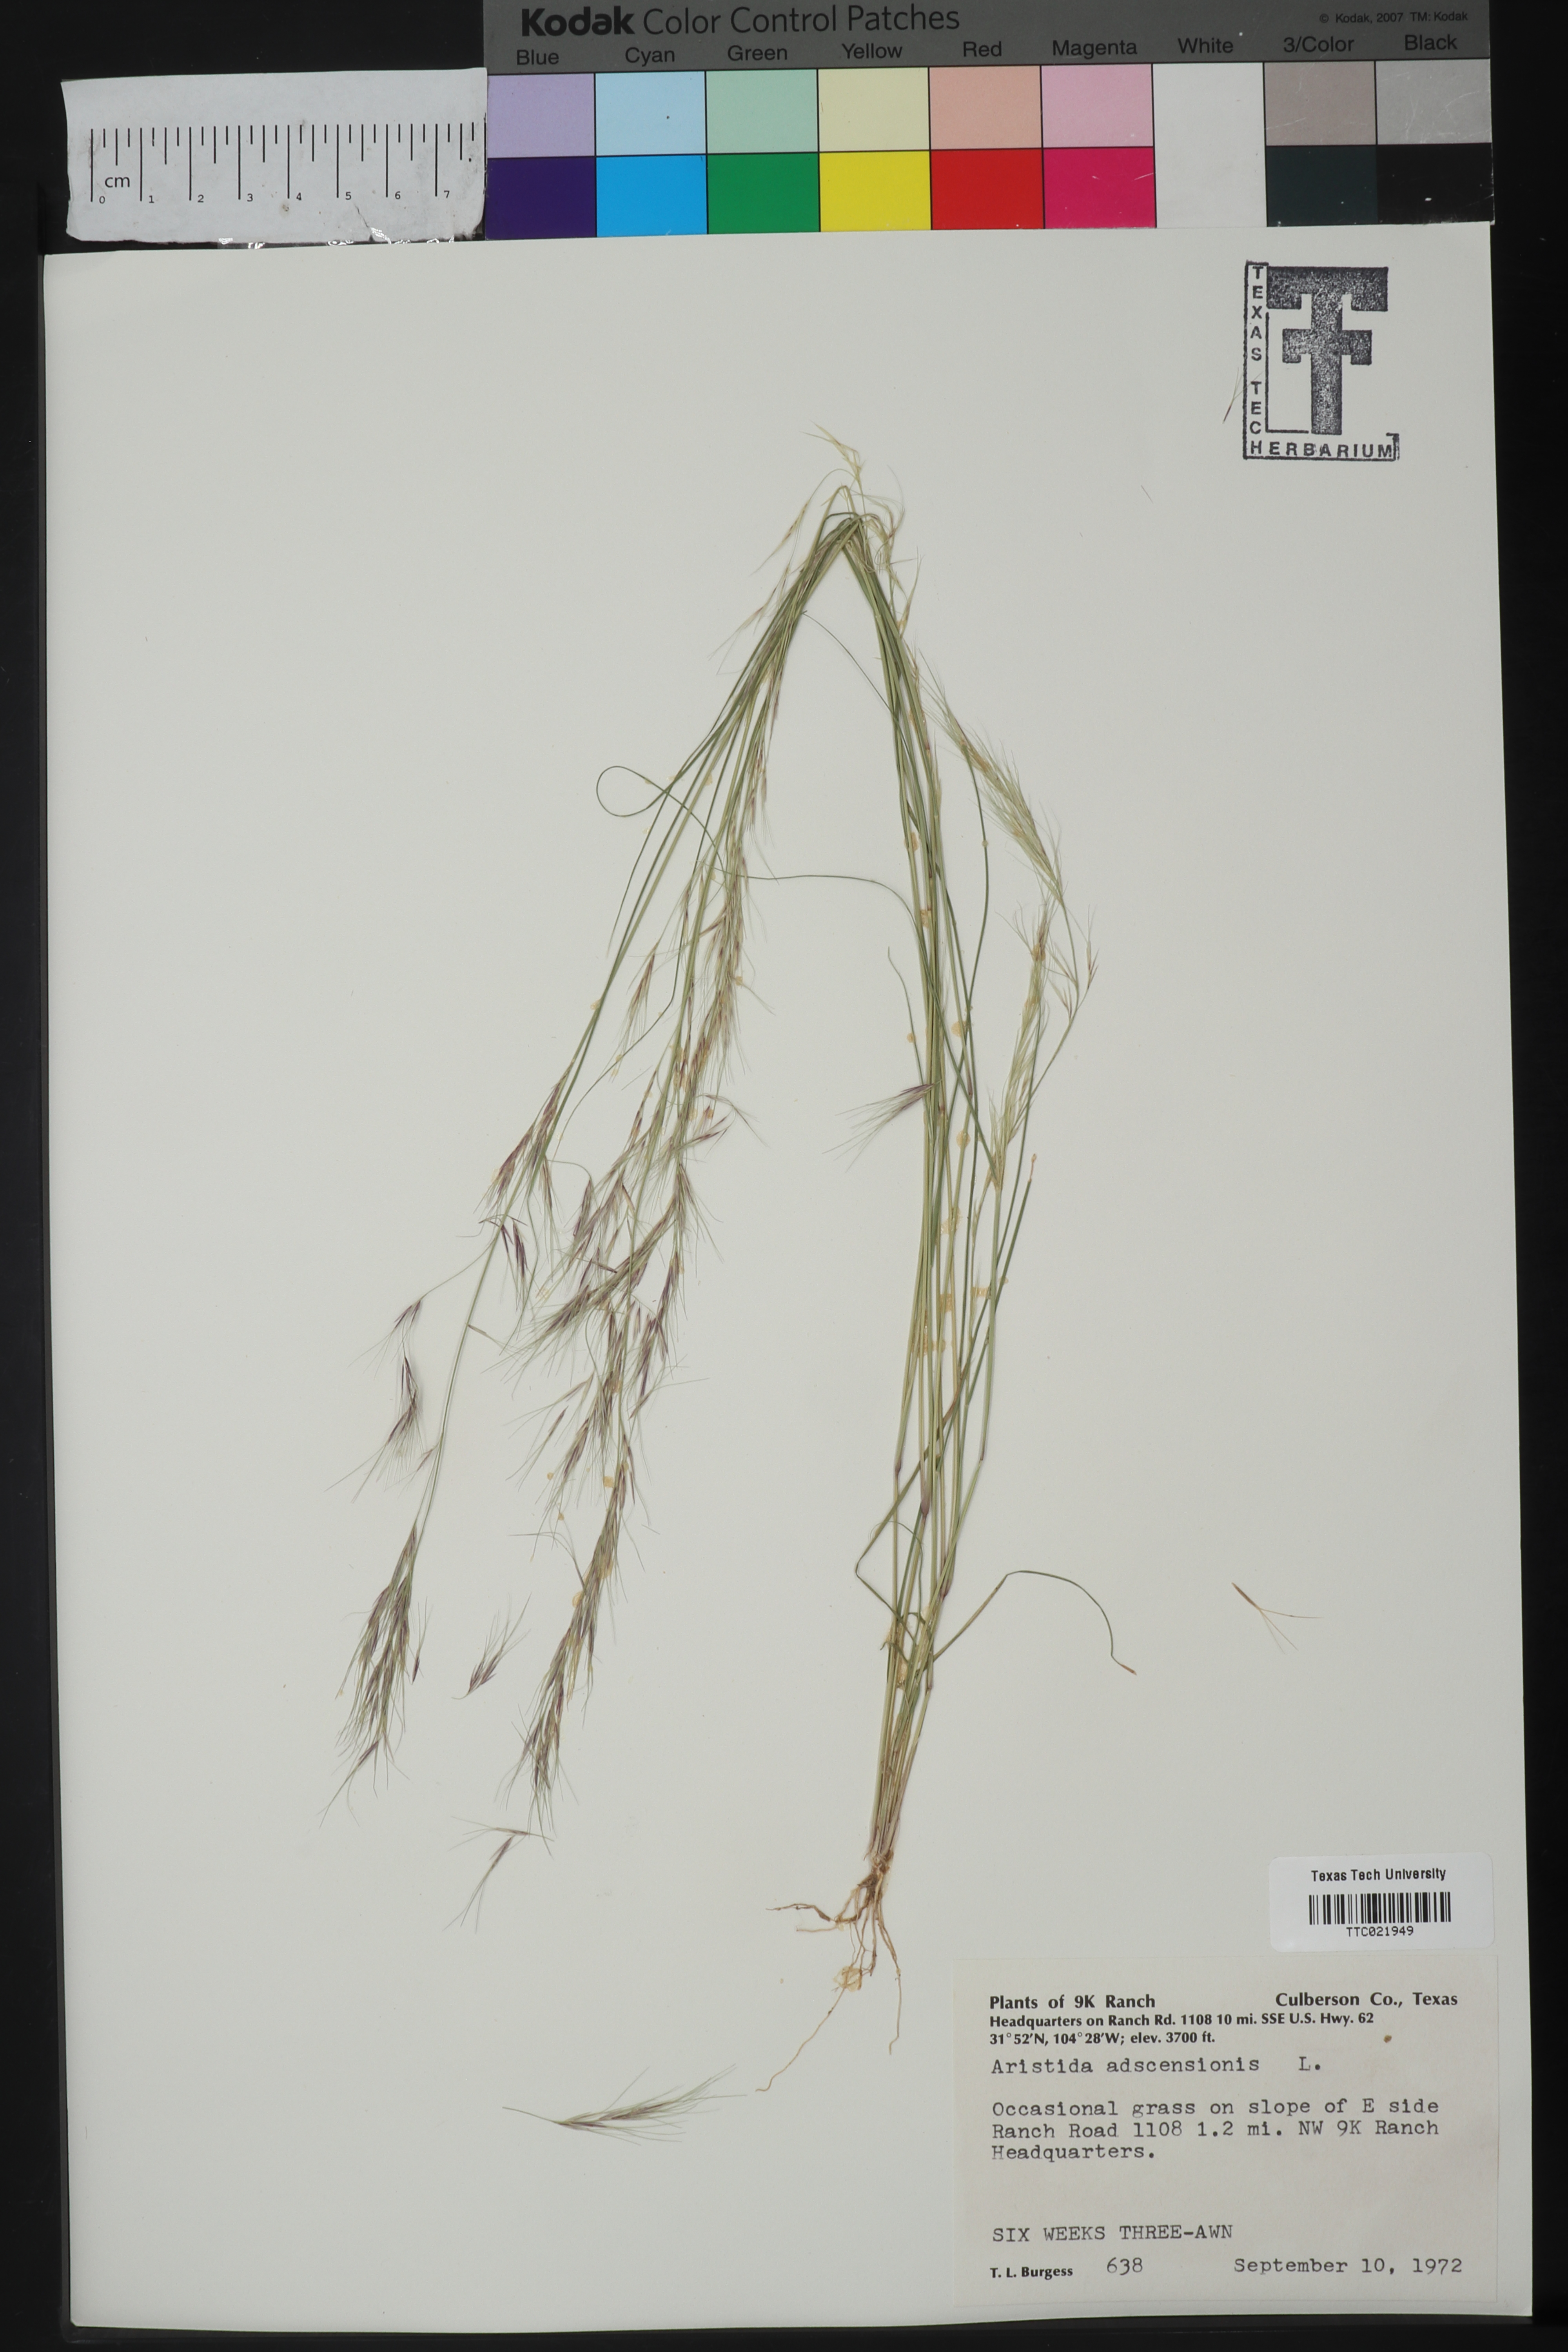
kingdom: Plantae
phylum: Tracheophyta
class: Liliopsida
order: Poales
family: Poaceae
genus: Aristida
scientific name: Aristida adscensionis
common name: Sixweeks threeawn
